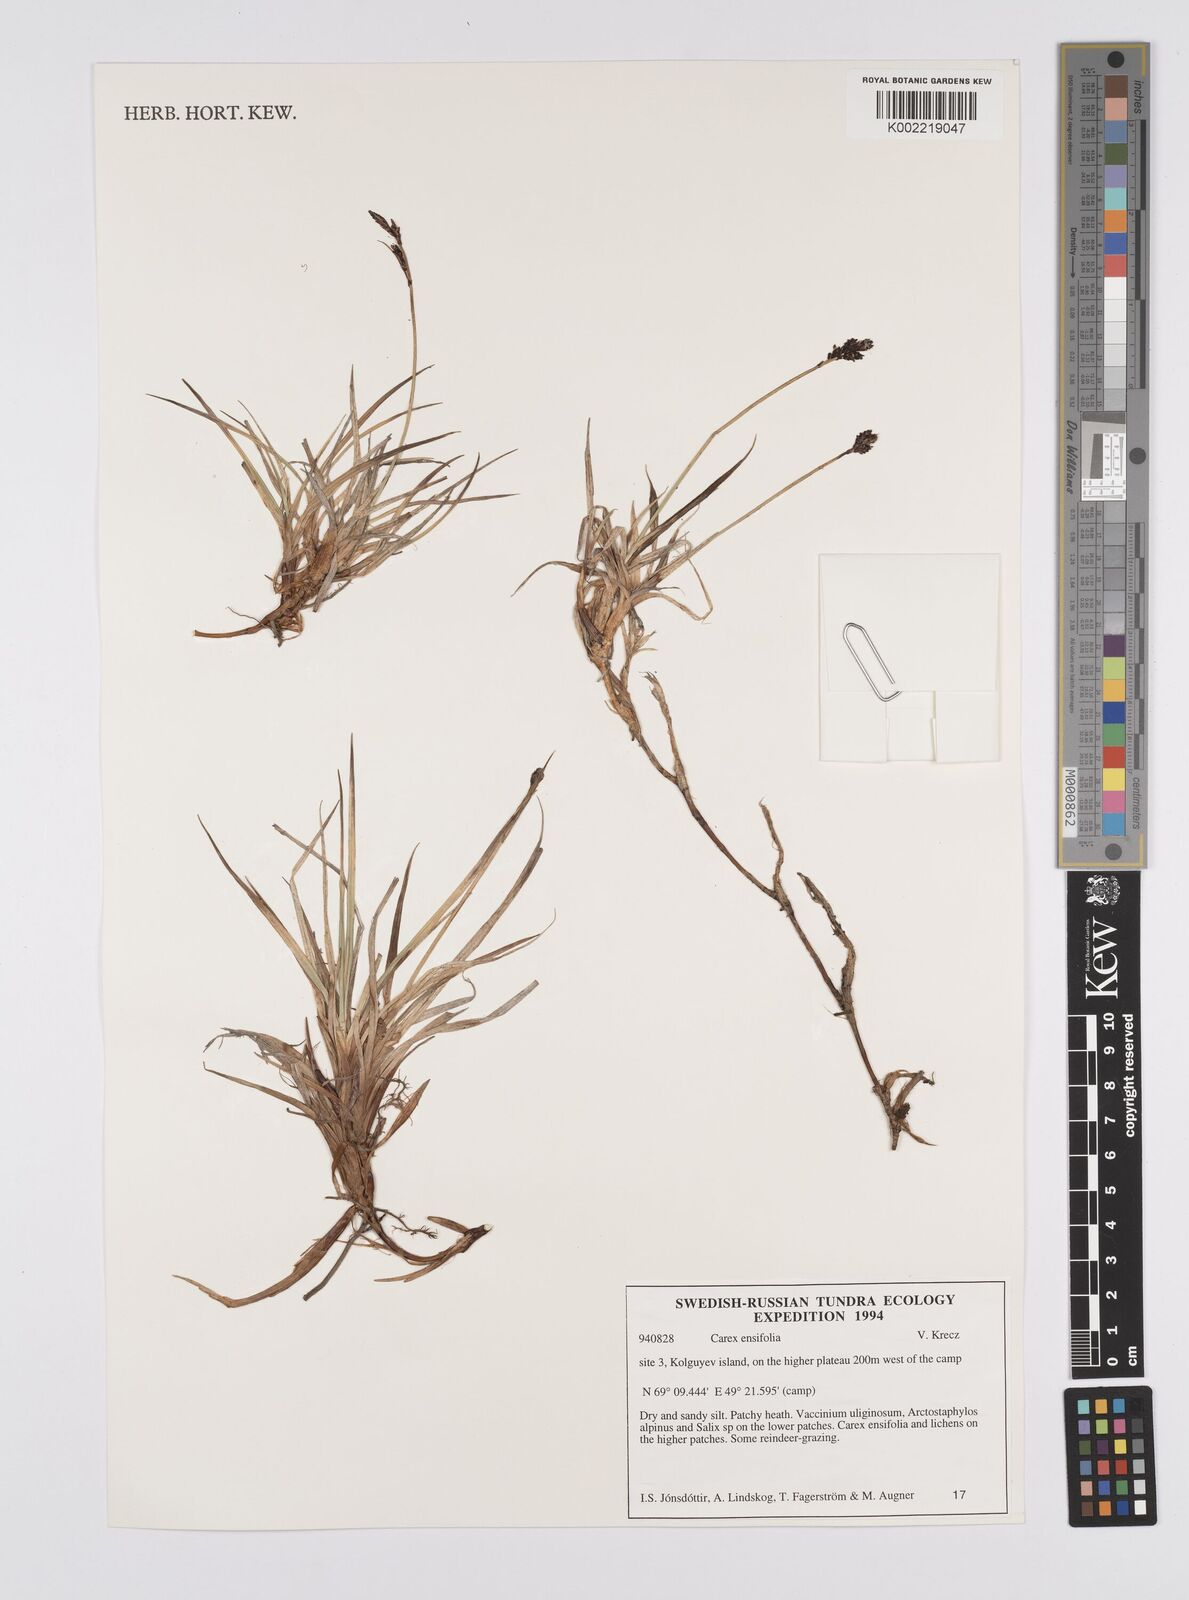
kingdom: Plantae
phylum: Tracheophyta
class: Liliopsida
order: Poales
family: Cyperaceae
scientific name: Cyperaceae
